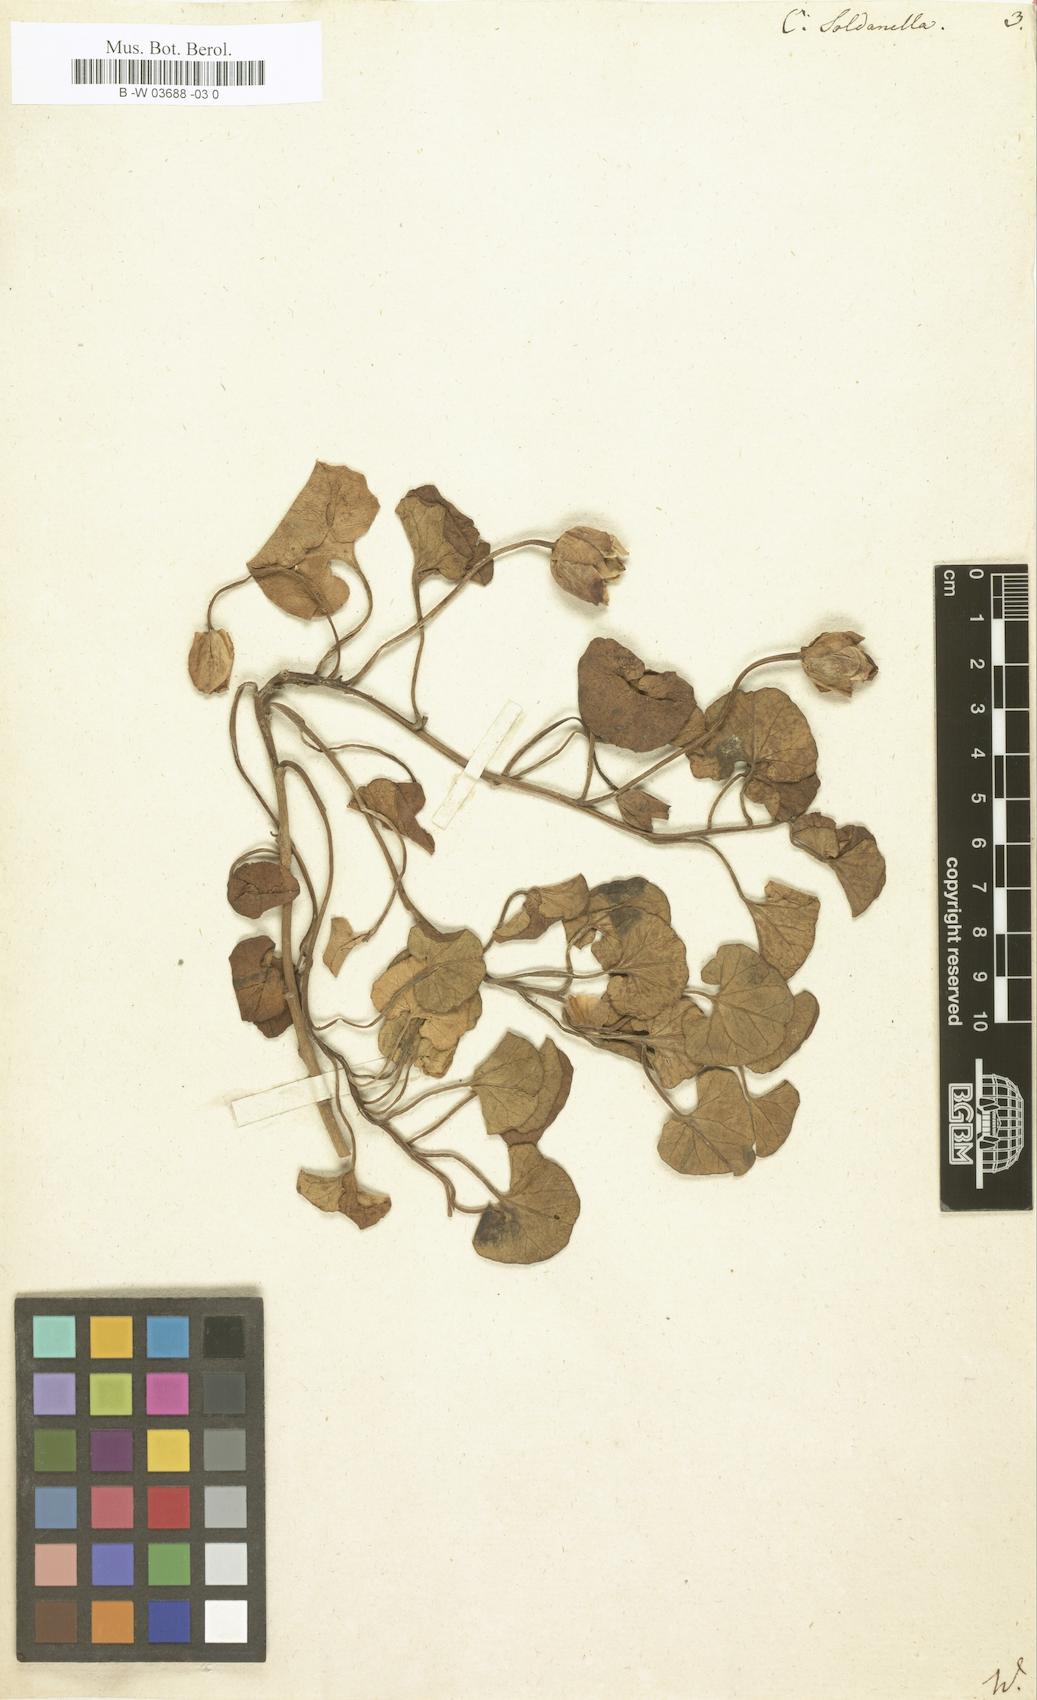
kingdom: Plantae
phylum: Tracheophyta
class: Magnoliopsida
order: Solanales
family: Convolvulaceae
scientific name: Convolvulaceae
